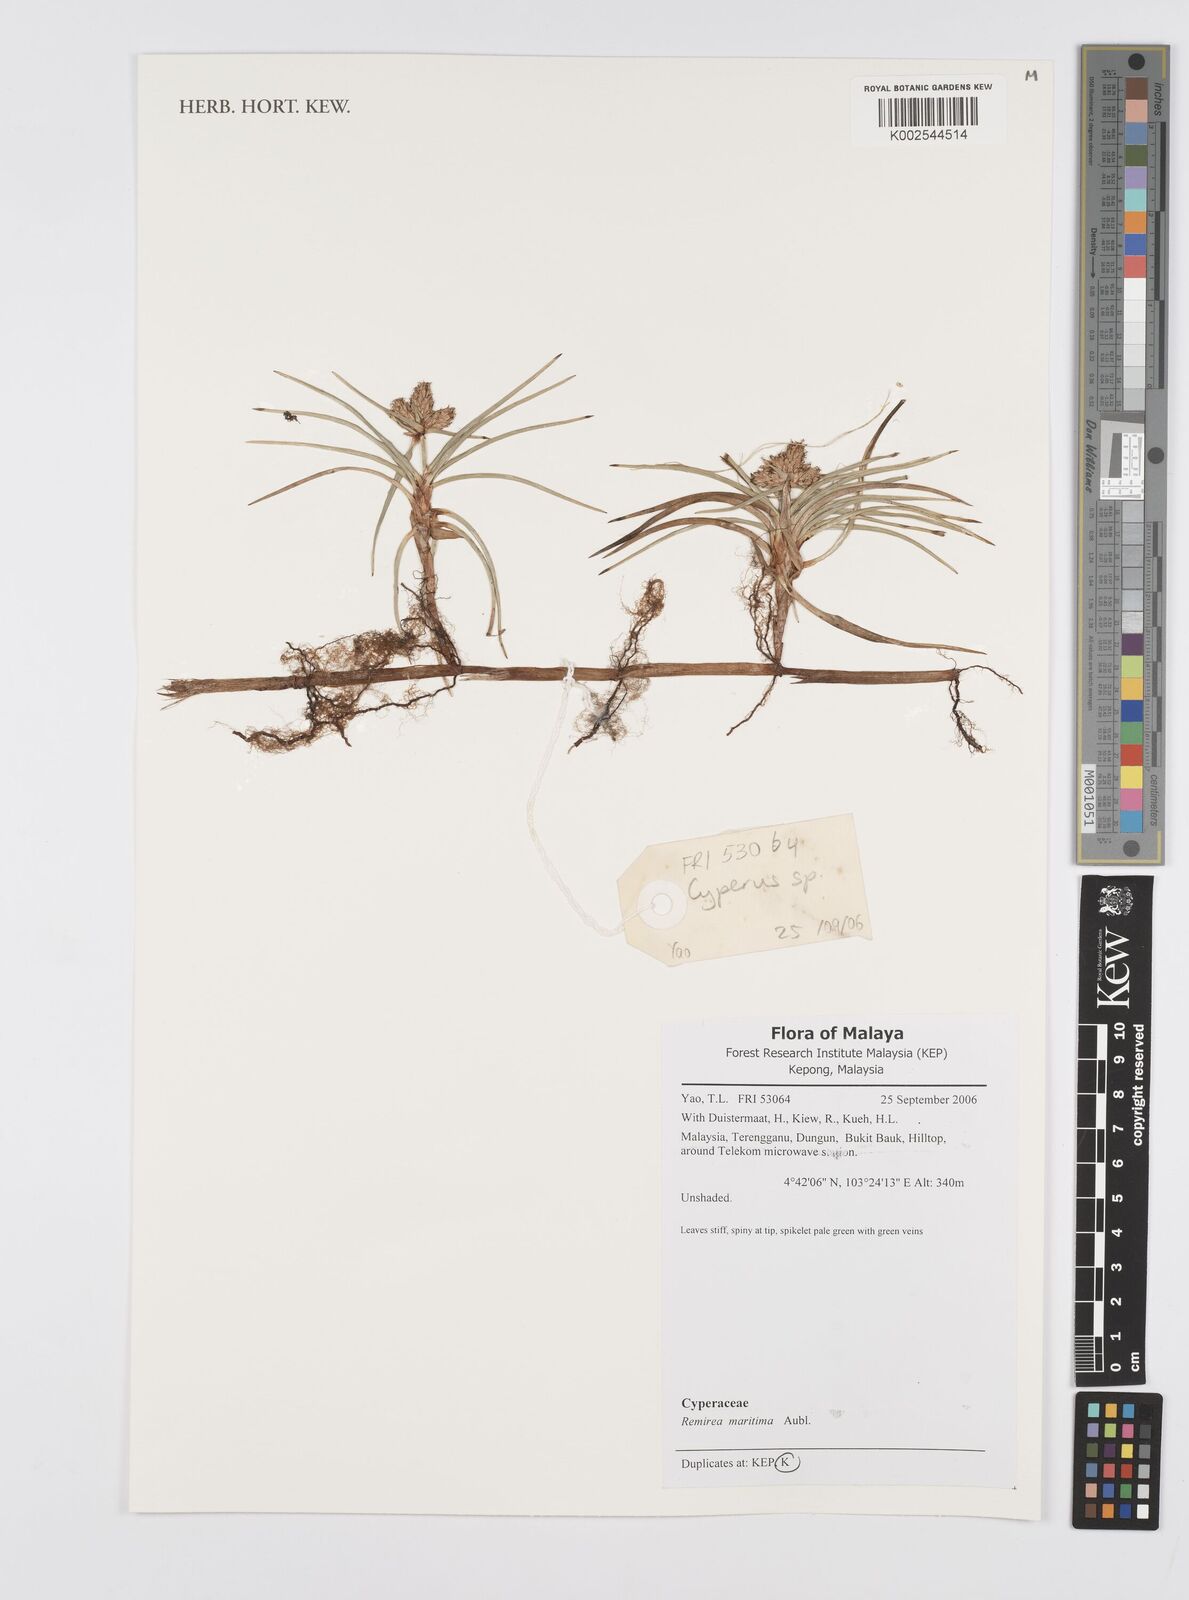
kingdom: Plantae
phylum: Tracheophyta
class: Liliopsida
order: Poales
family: Cyperaceae
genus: Cyperus
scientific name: Cyperus
